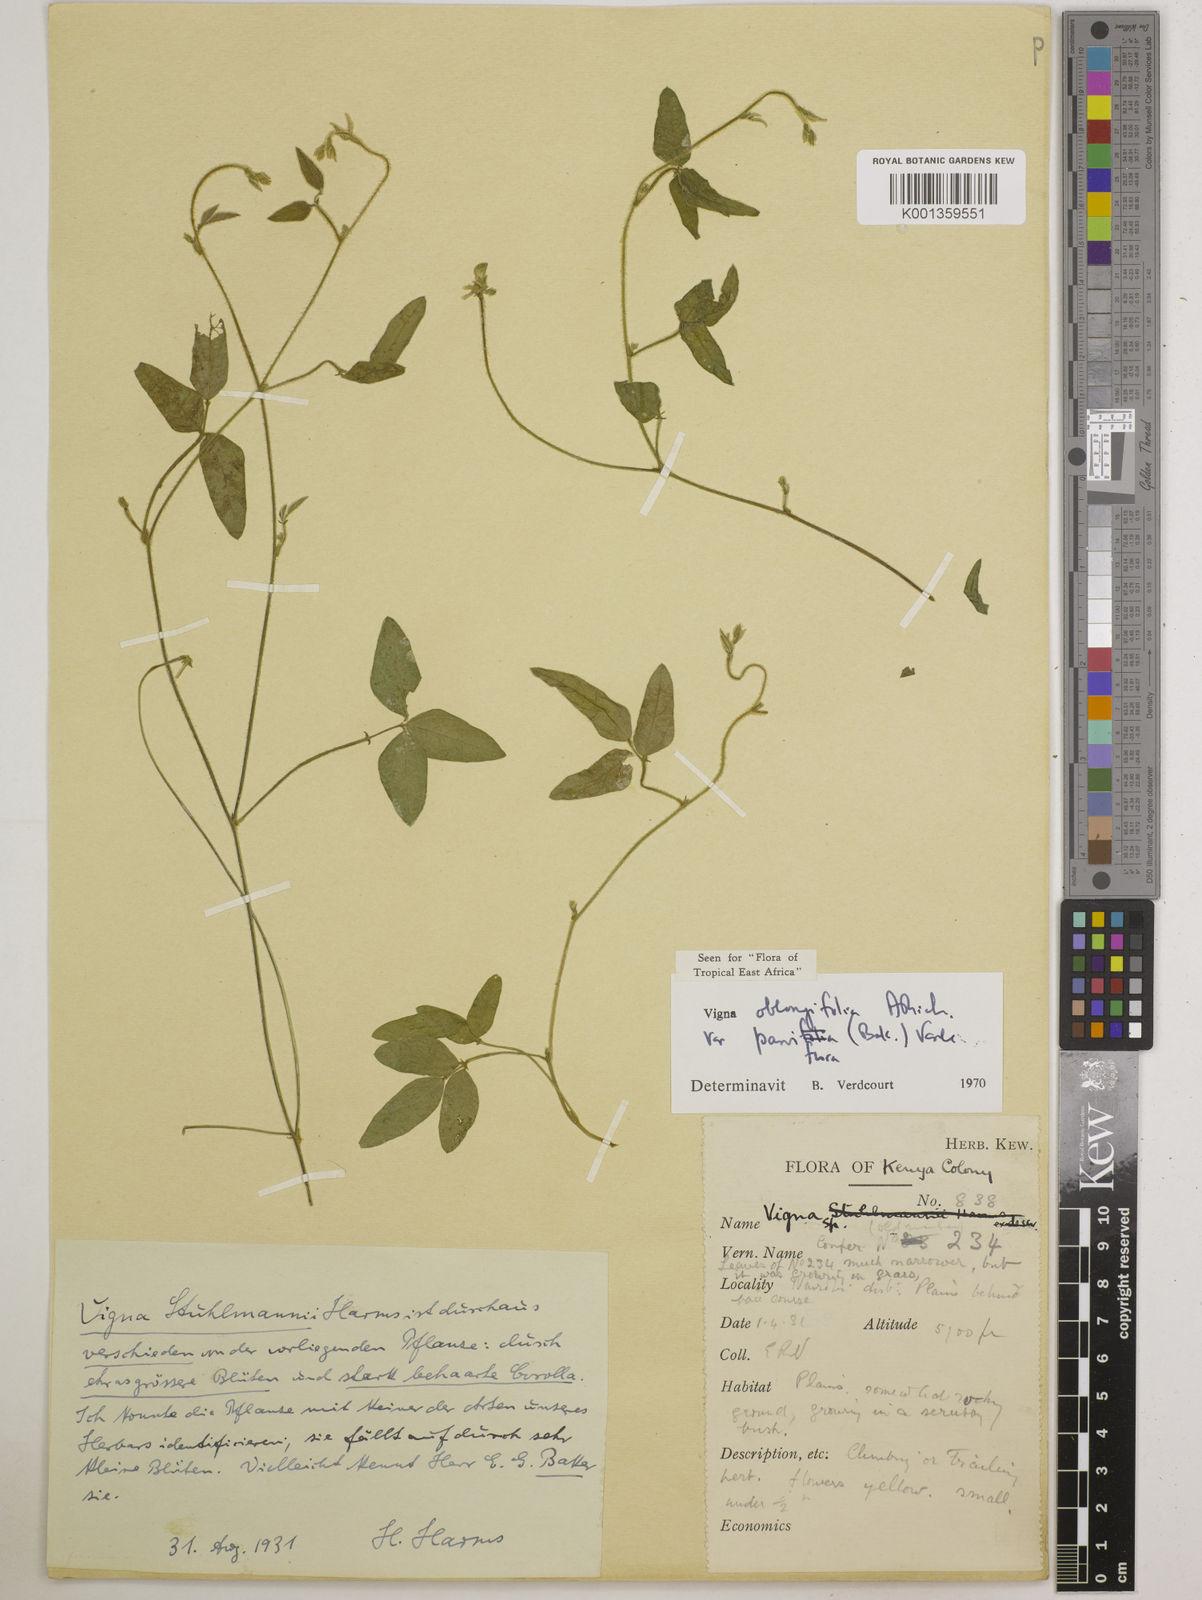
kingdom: Plantae
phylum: Tracheophyta
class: Magnoliopsida
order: Fabales
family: Fabaceae
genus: Vigna
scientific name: Vigna
